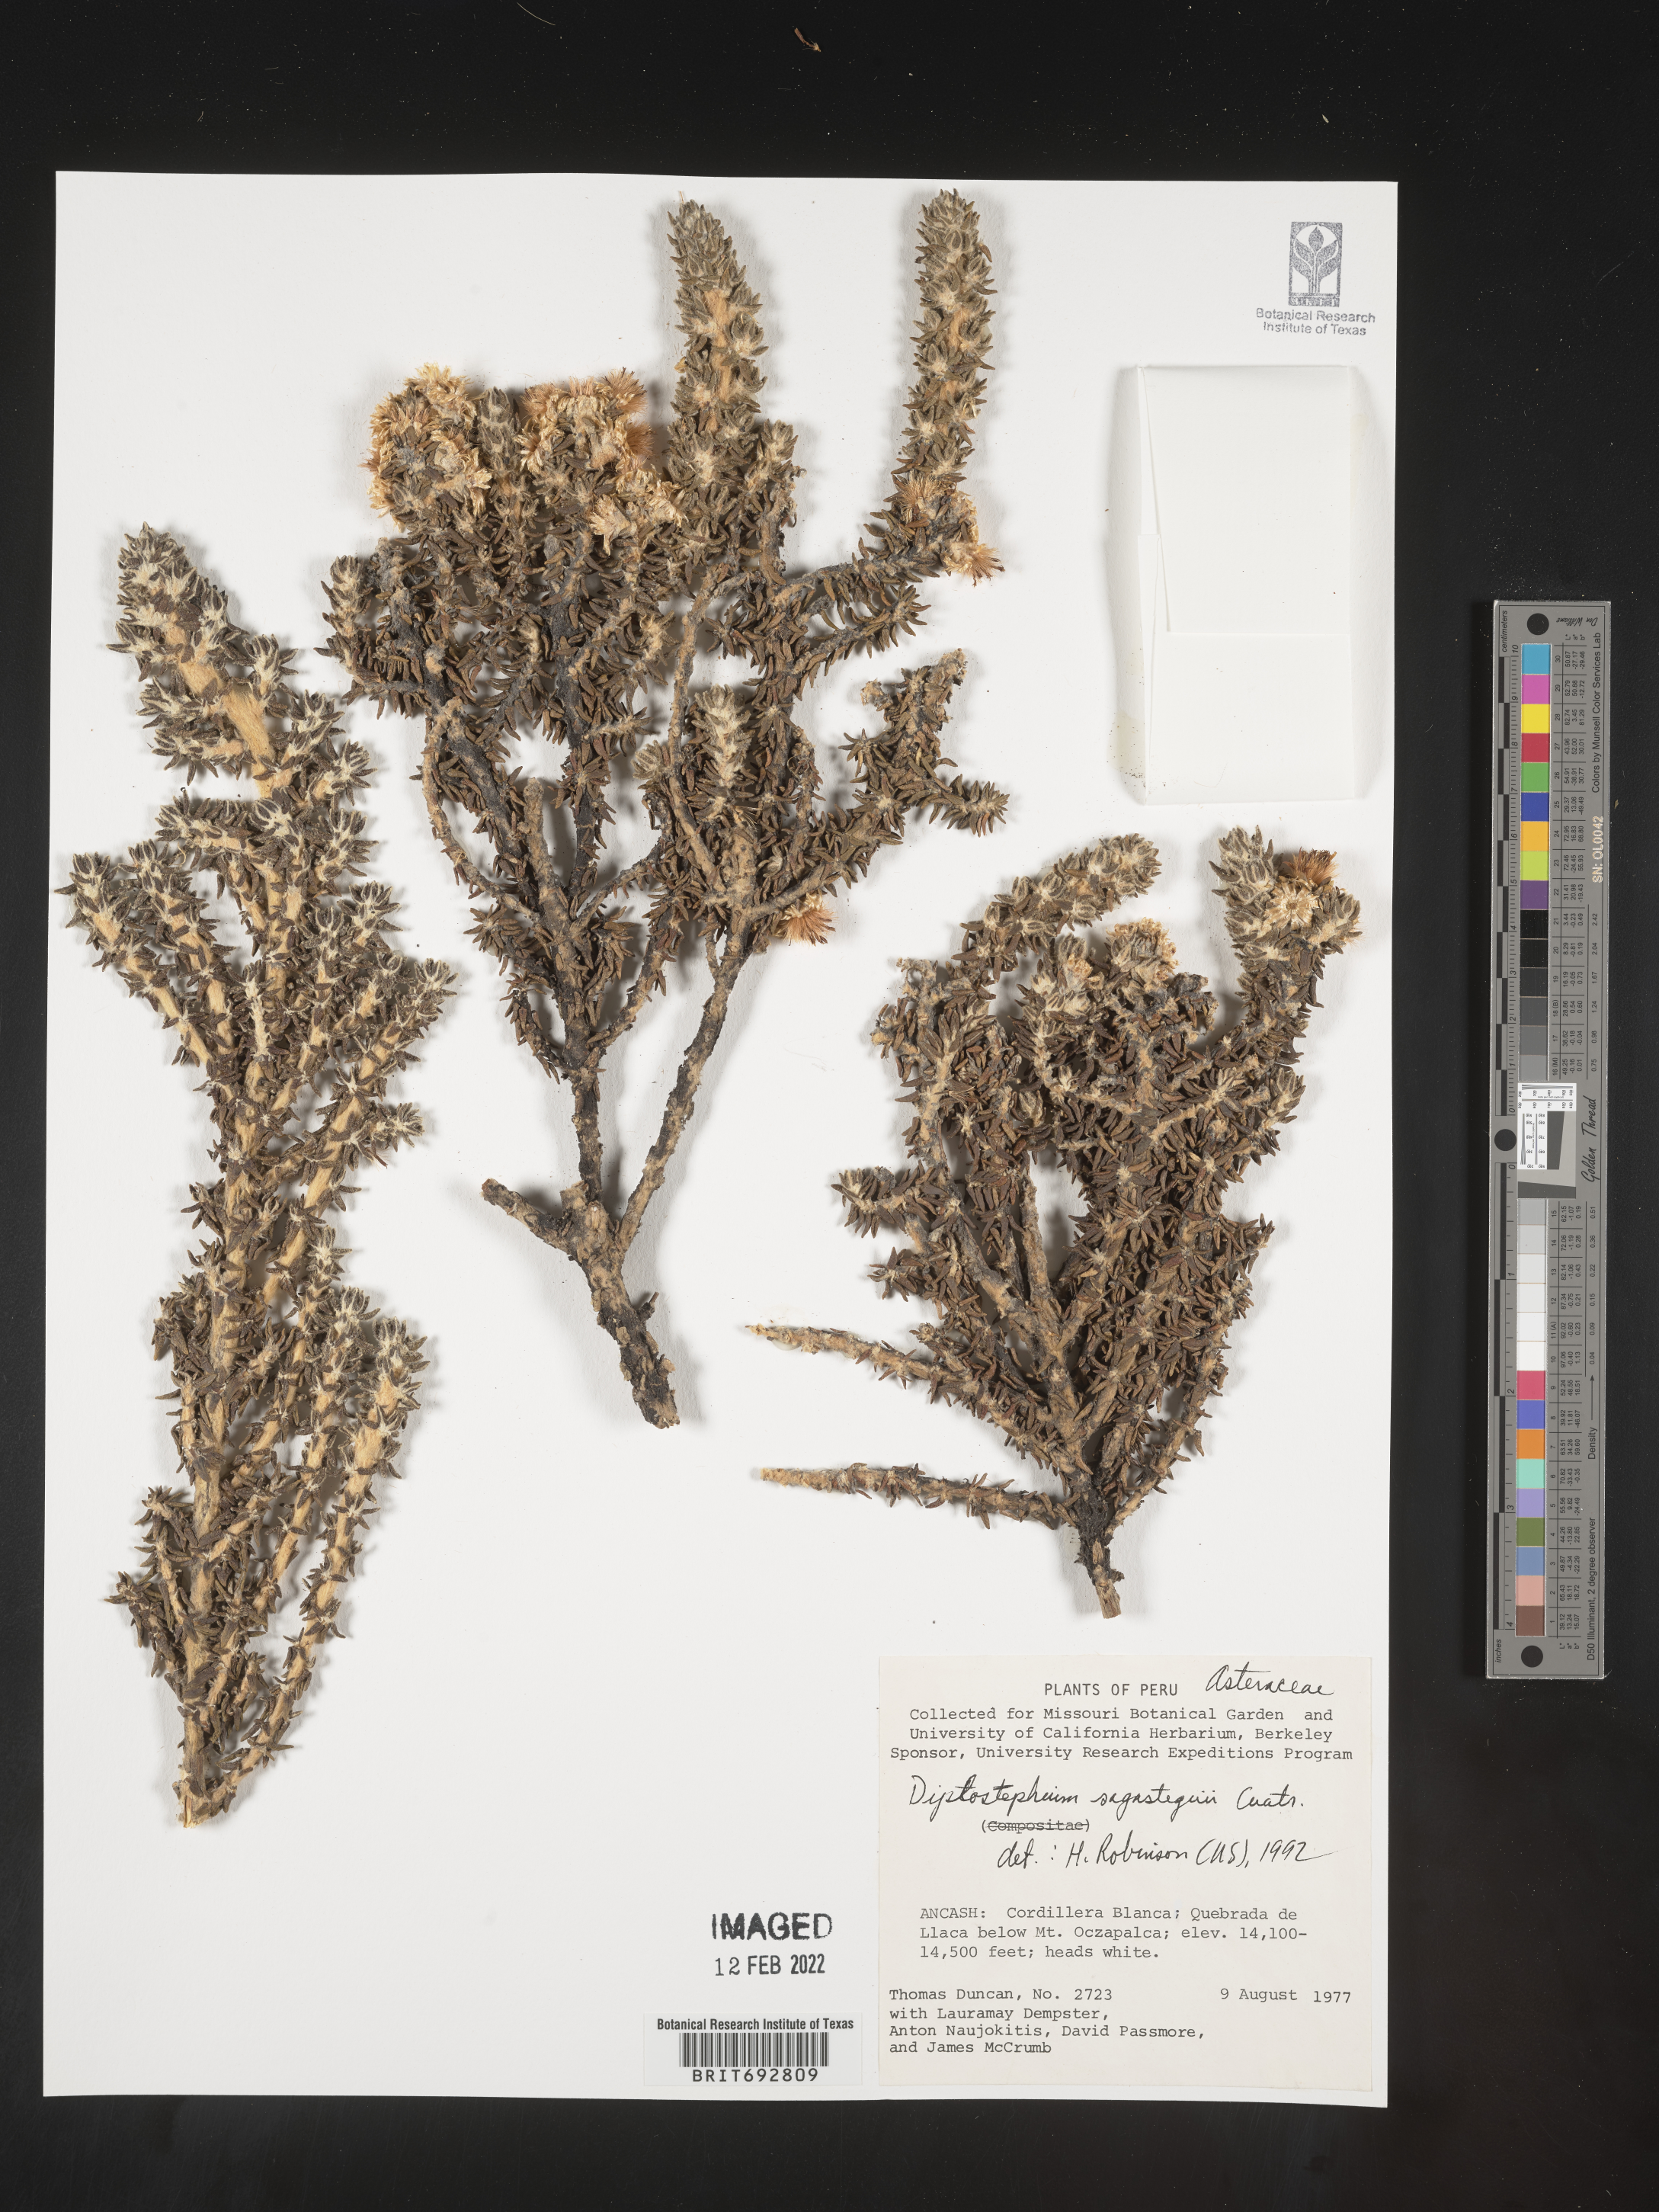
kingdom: Plantae
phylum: Tracheophyta
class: Magnoliopsida
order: Asterales
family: Asteraceae
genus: Diplostephium
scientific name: Diplostephium
